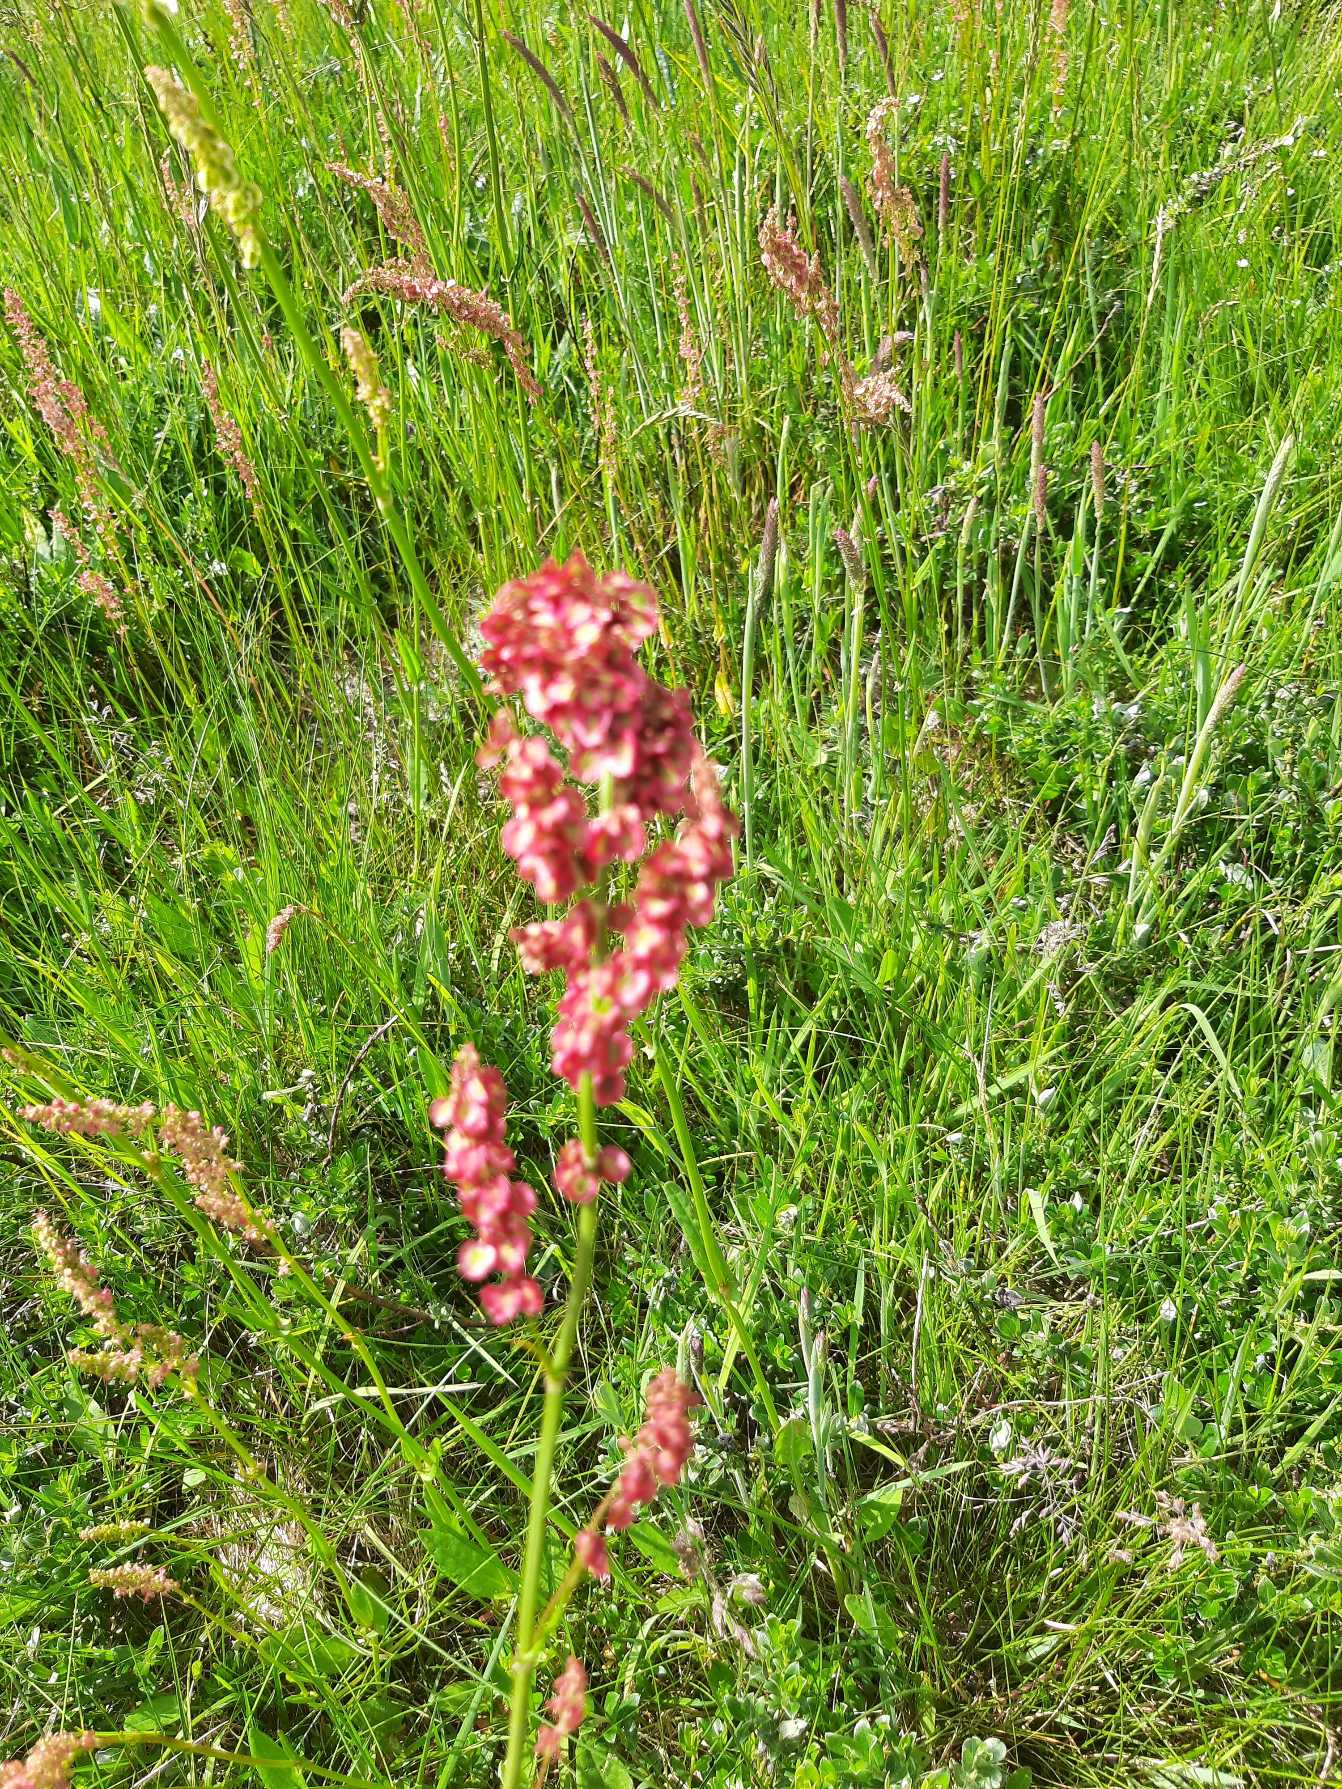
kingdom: Plantae
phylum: Tracheophyta
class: Magnoliopsida
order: Caryophyllales
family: Polygonaceae
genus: Rumex
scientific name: Rumex acetosa
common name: Almindelig syre
